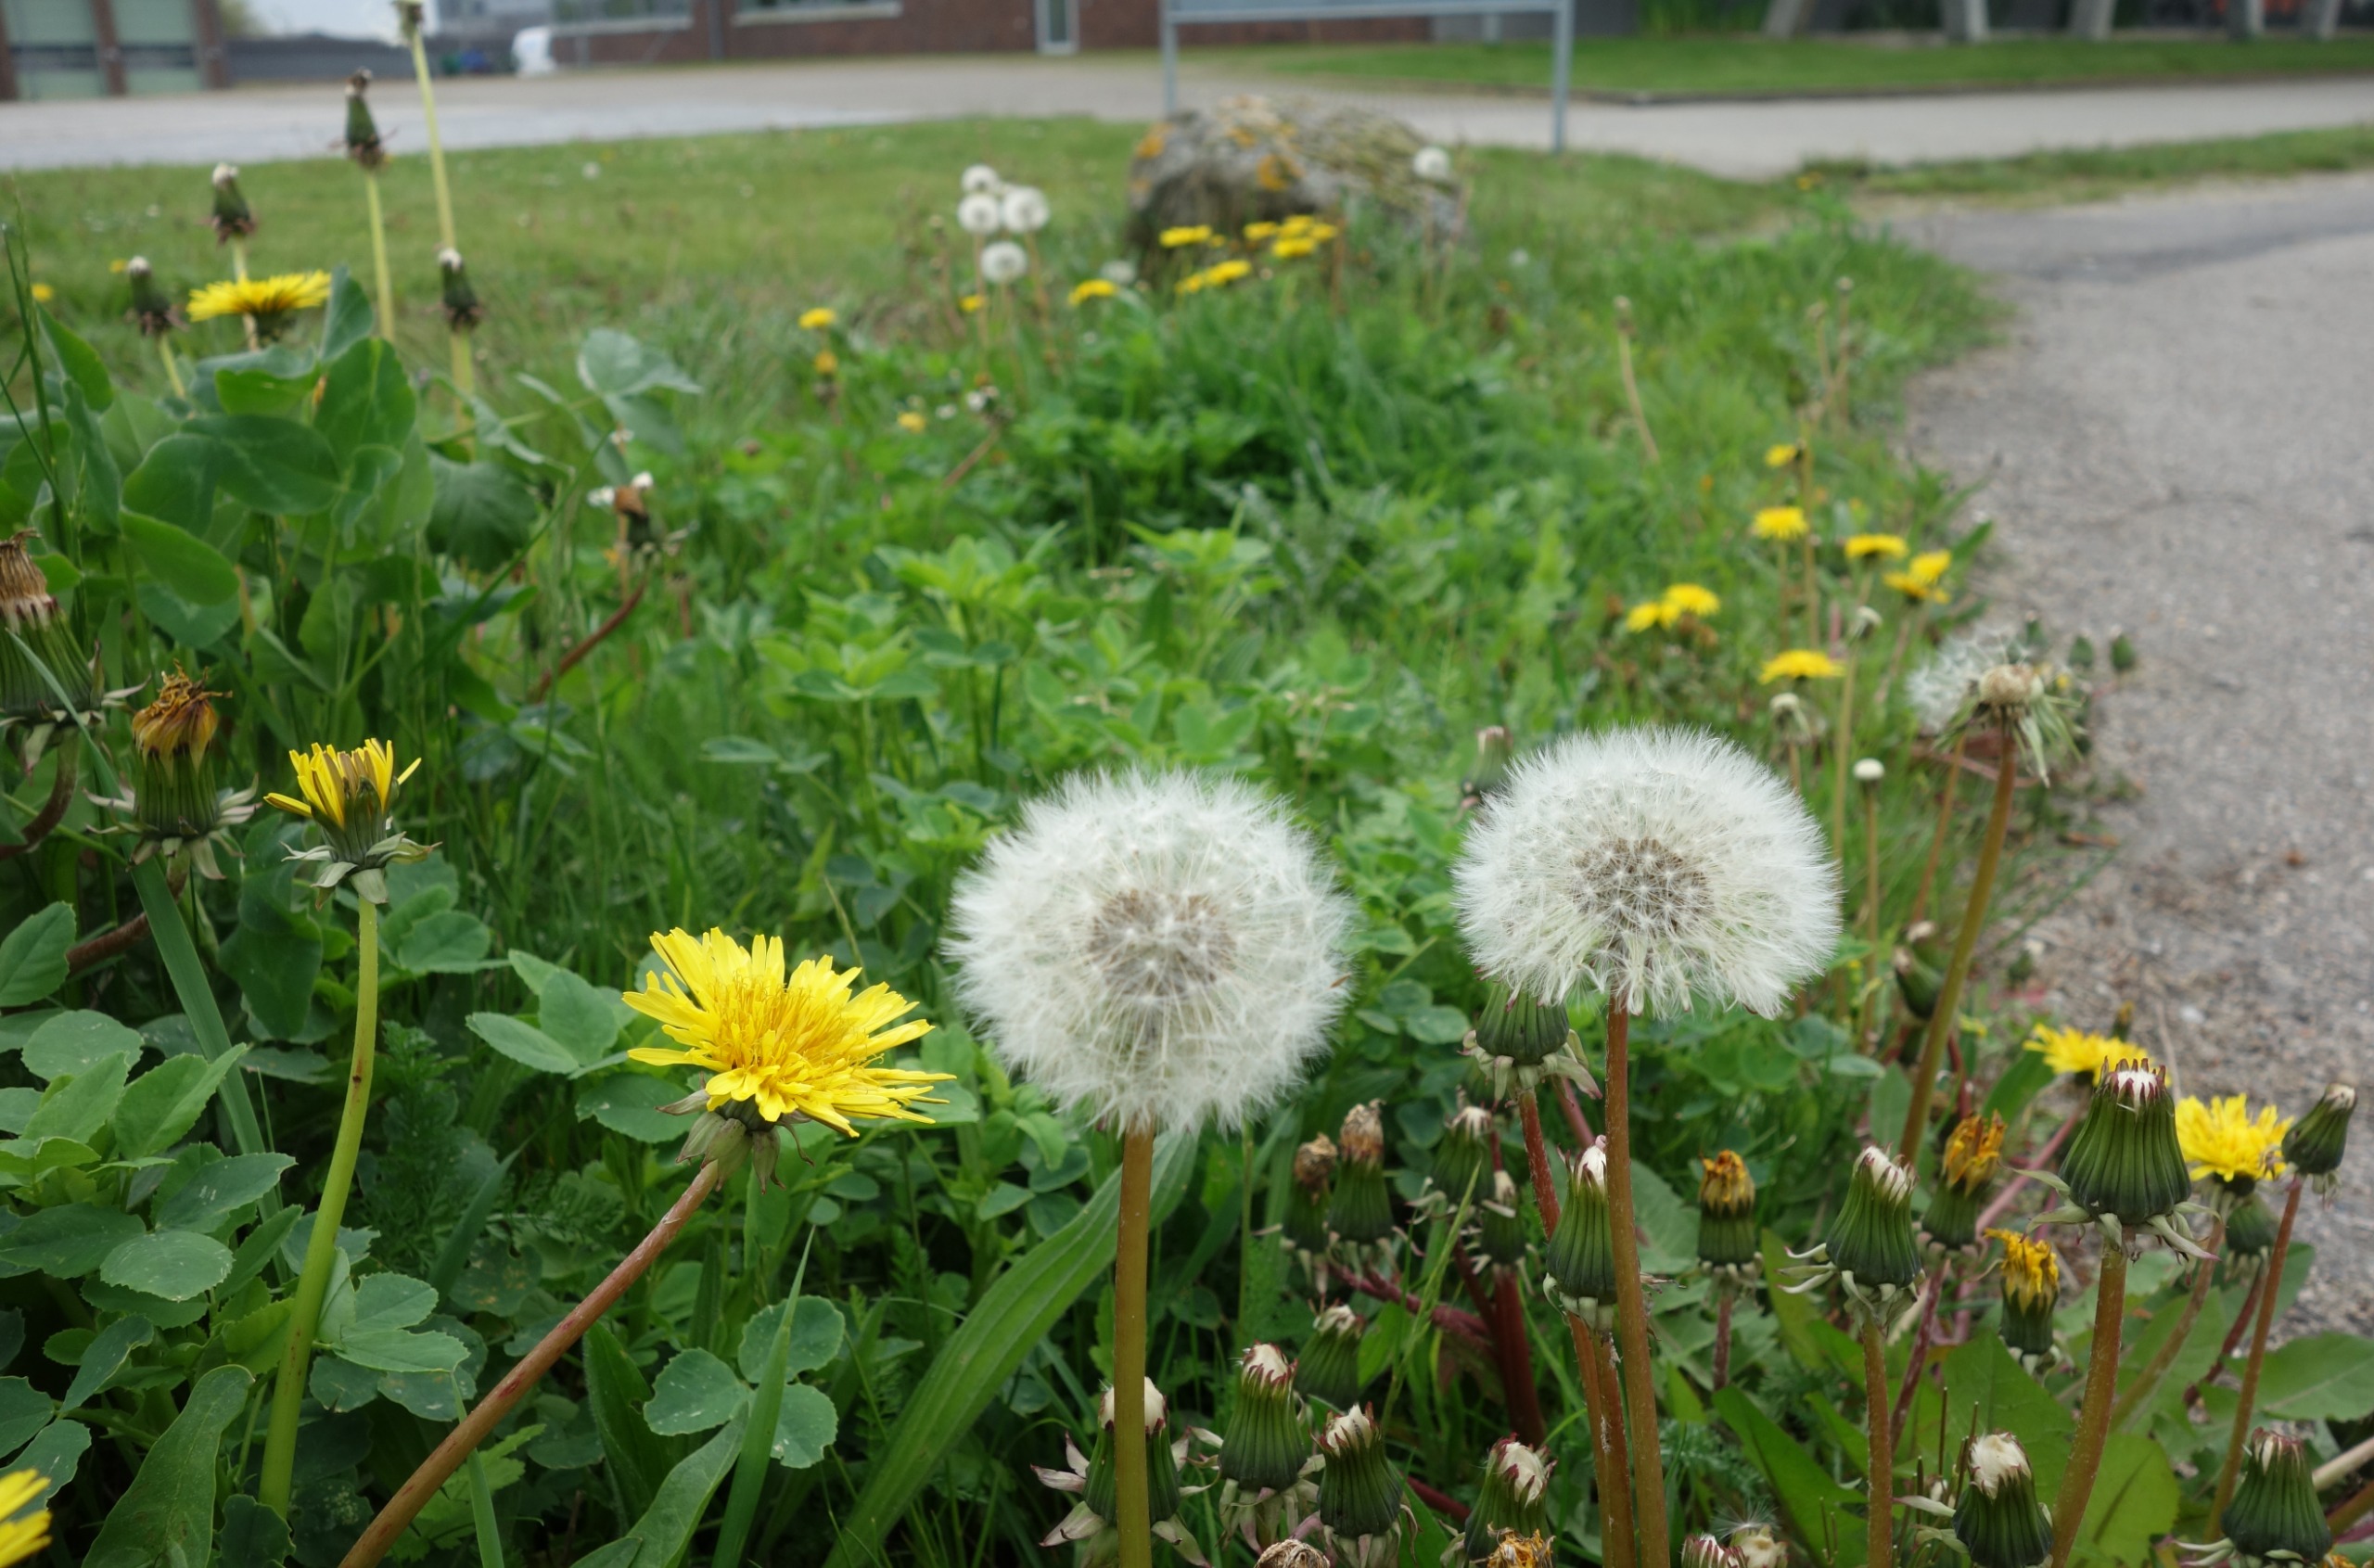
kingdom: Plantae
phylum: Tracheophyta
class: Magnoliopsida
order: Asterales
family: Asteraceae
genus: Taraxacum
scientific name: Taraxacum
